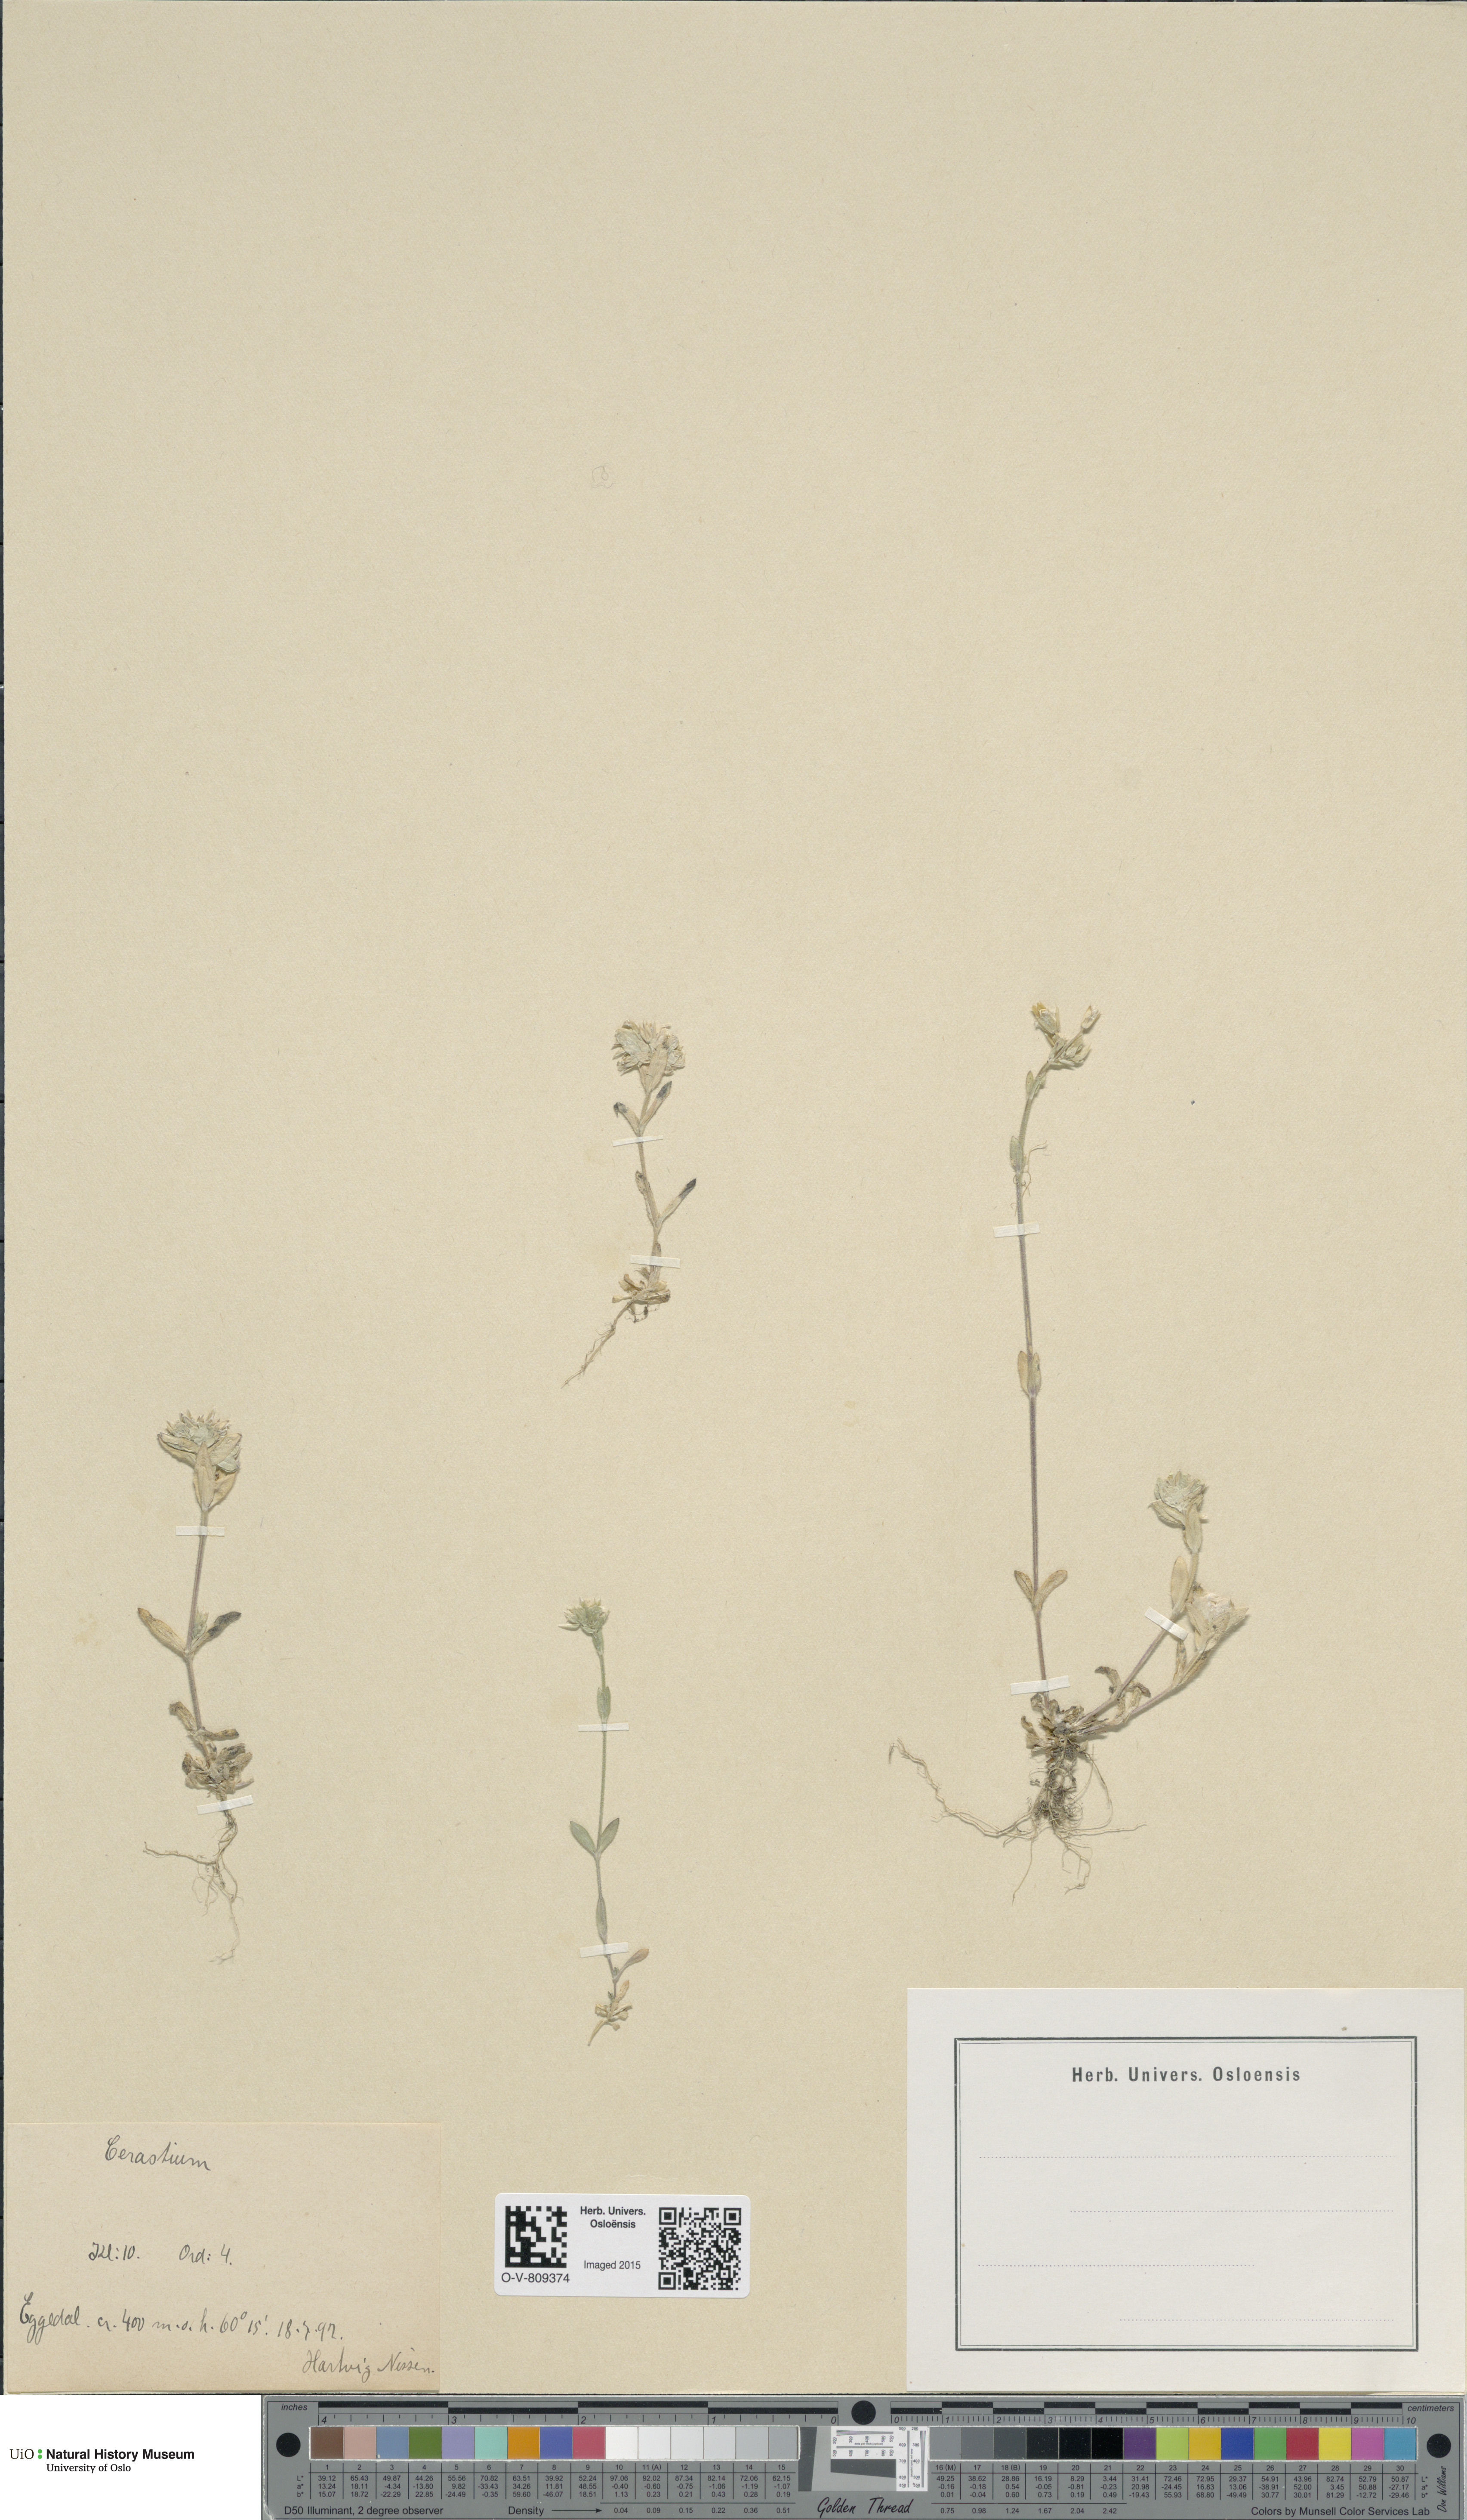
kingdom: Plantae
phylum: Tracheophyta
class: Magnoliopsida
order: Caryophyllales
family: Caryophyllaceae
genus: Cerastium
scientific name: Cerastium holosteoides
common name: Big chickweed
